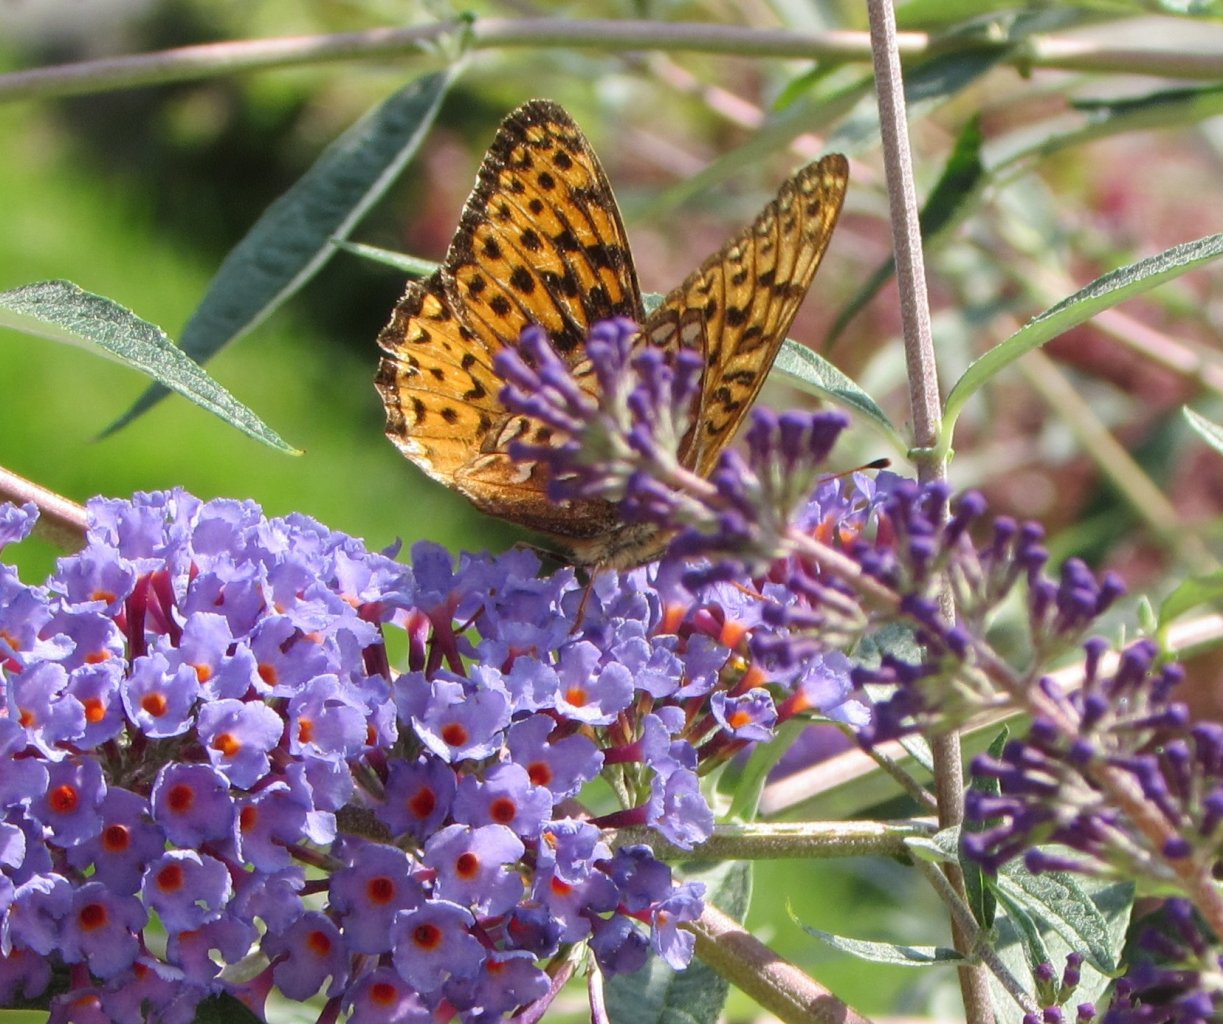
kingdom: Animalia
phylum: Arthropoda
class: Insecta
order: Lepidoptera
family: Nymphalidae
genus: Speyeria
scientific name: Speyeria atlantis
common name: Atlantis Fritillary
